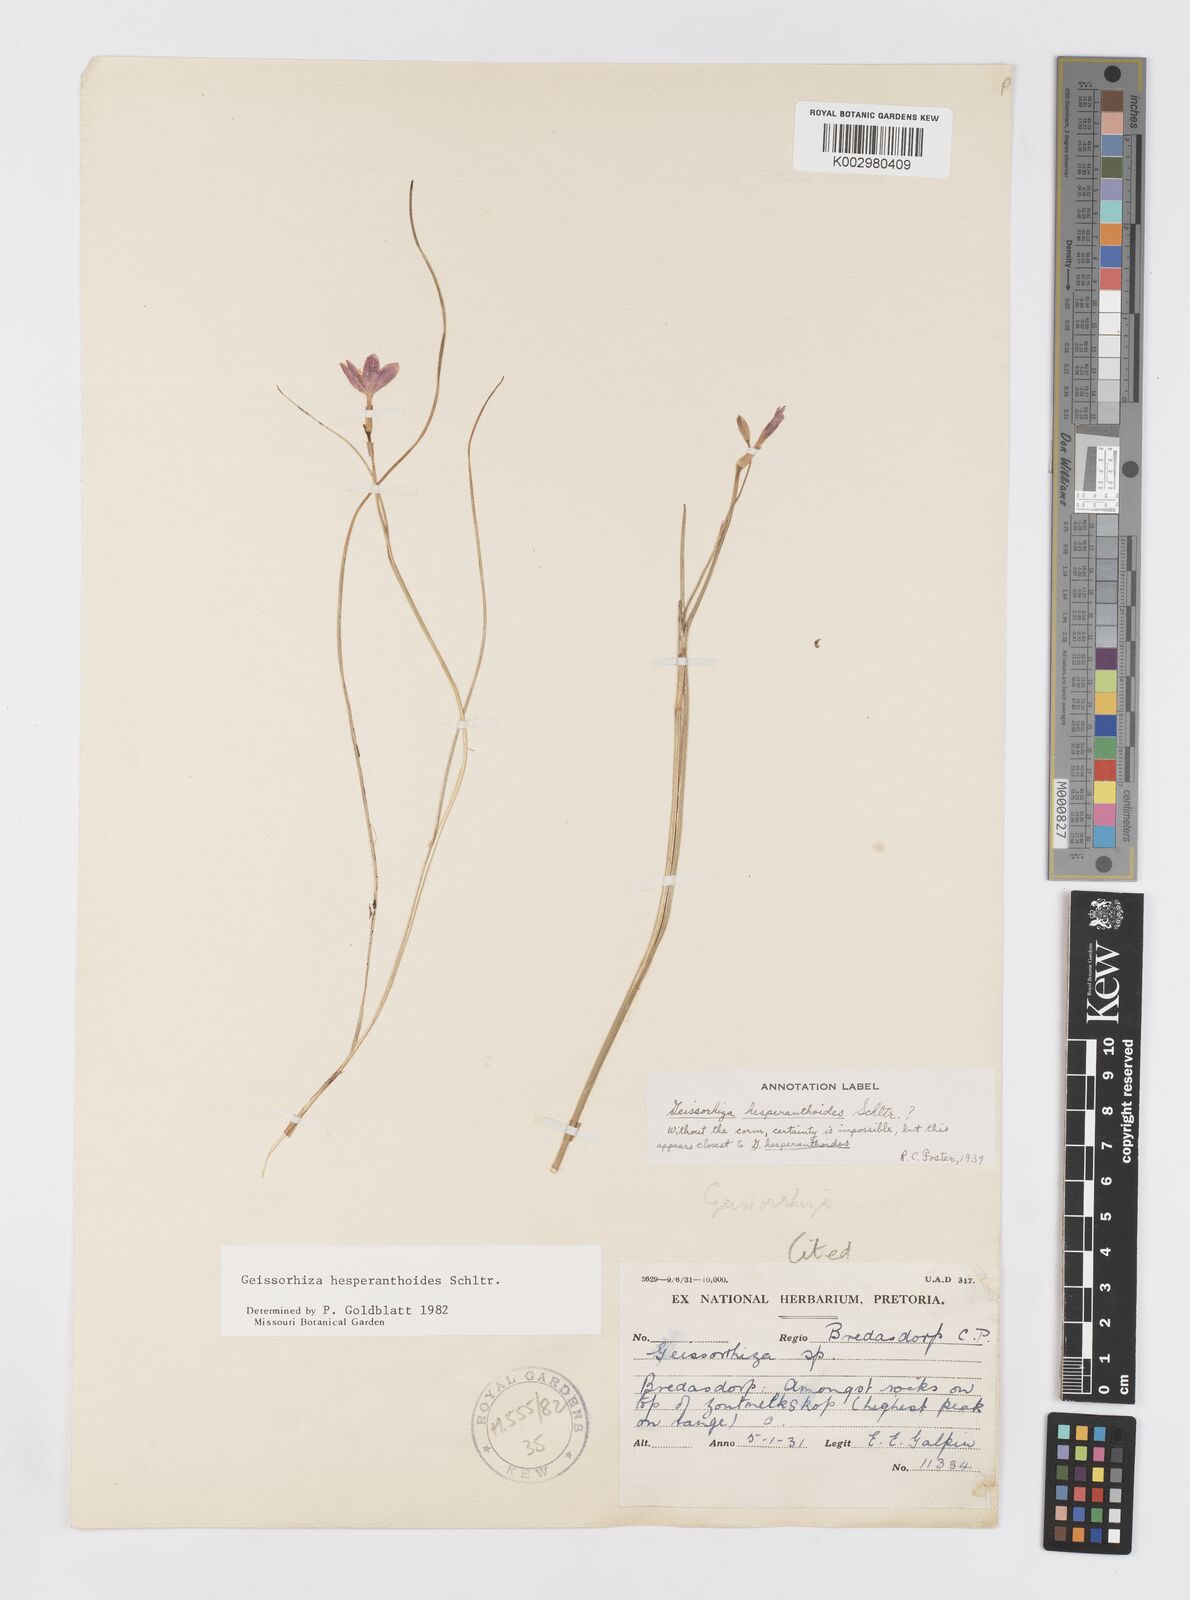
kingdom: Plantae
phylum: Tracheophyta
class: Liliopsida
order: Asparagales
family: Iridaceae
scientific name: Iridaceae
